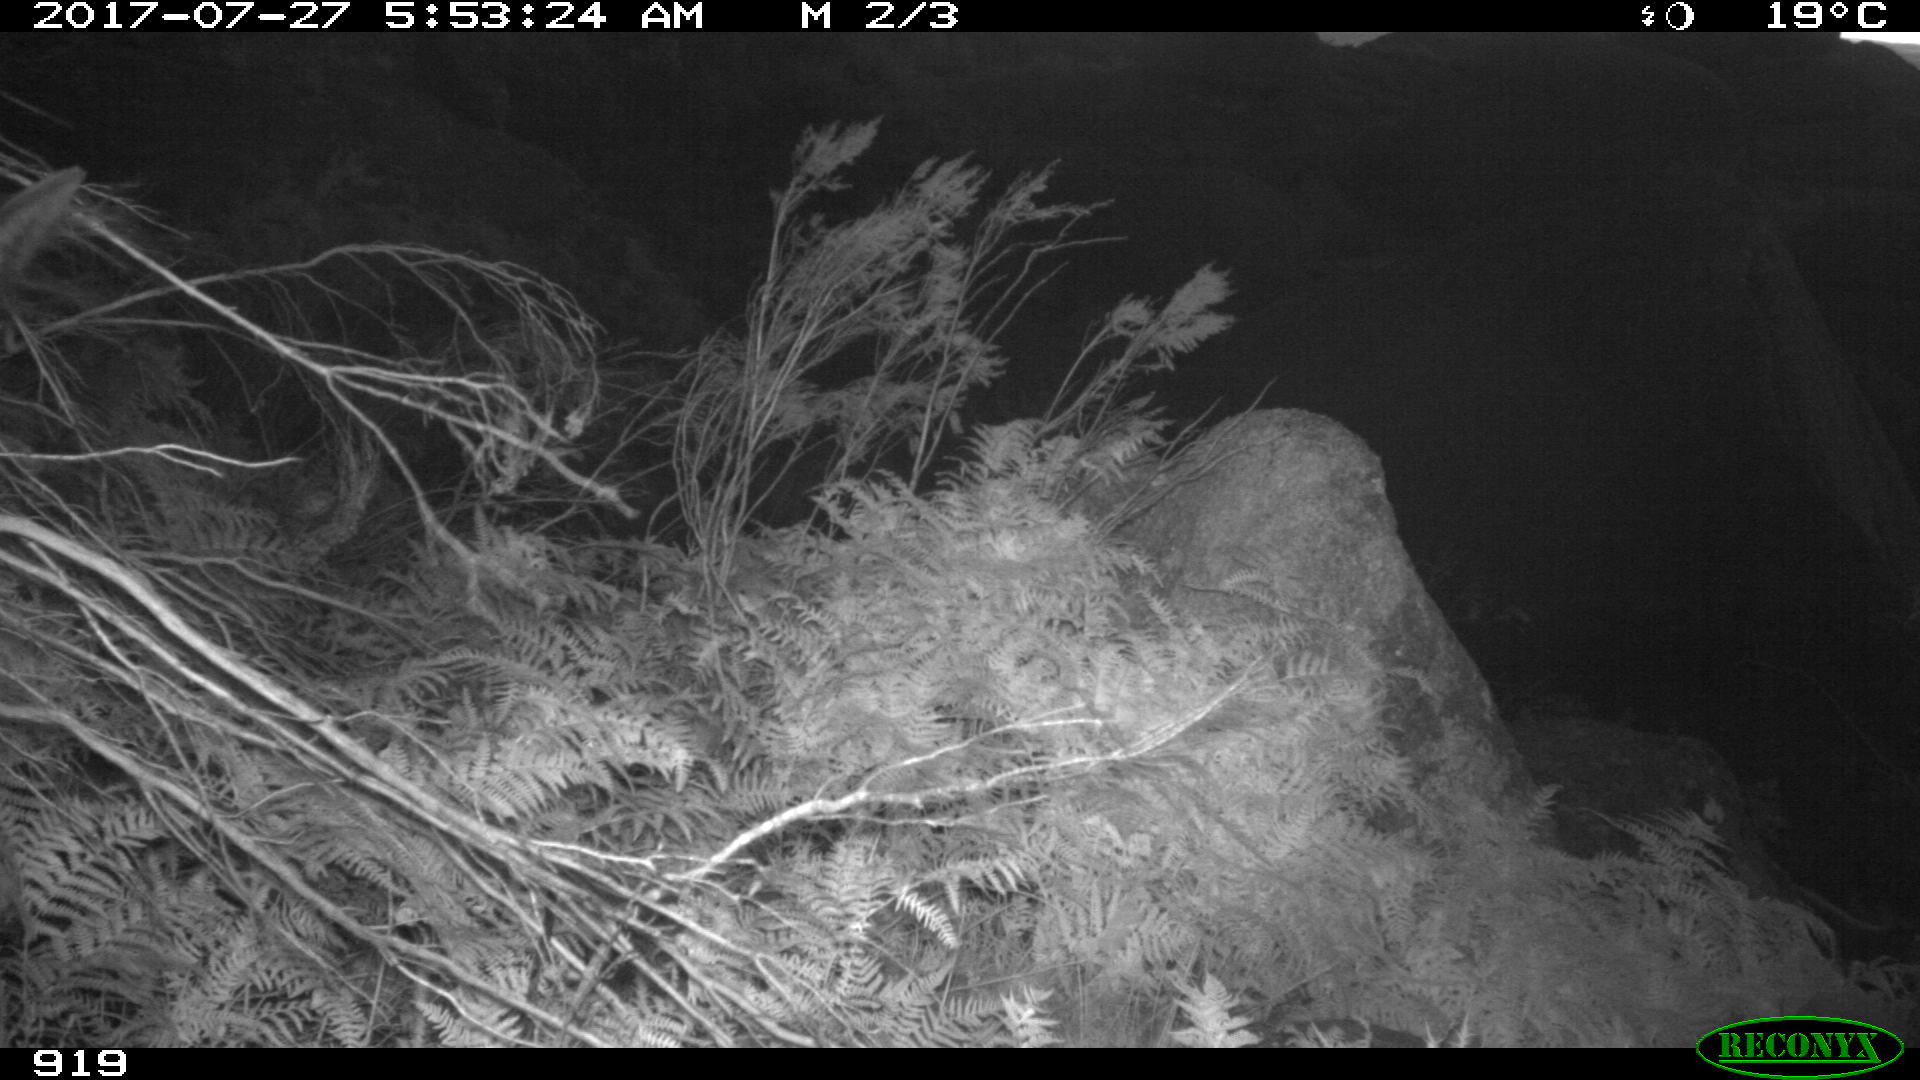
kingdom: Animalia
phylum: Chordata
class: Mammalia
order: Perissodactyla
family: Equidae
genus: Equus
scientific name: Equus caballus
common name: Horse
